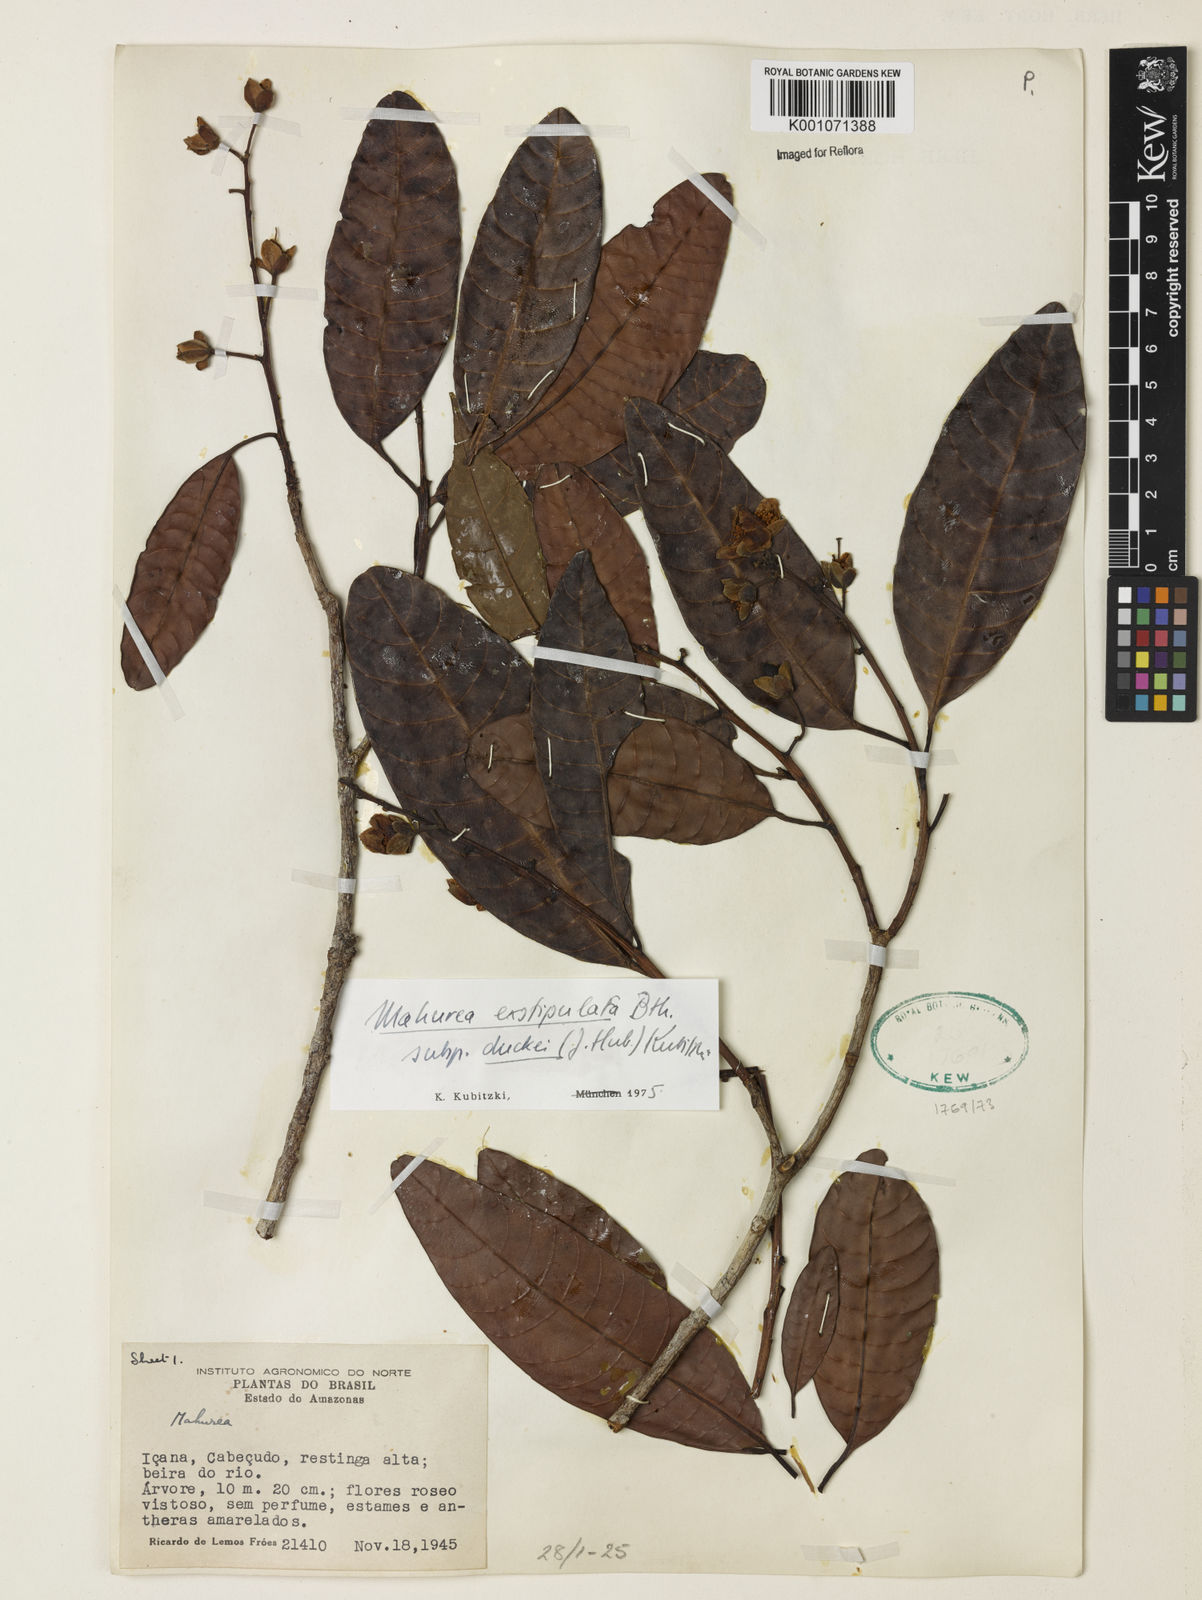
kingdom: Plantae
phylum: Tracheophyta
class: Magnoliopsida
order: Malpighiales
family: Calophyllaceae
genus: Mahurea
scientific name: Mahurea exstipulata
